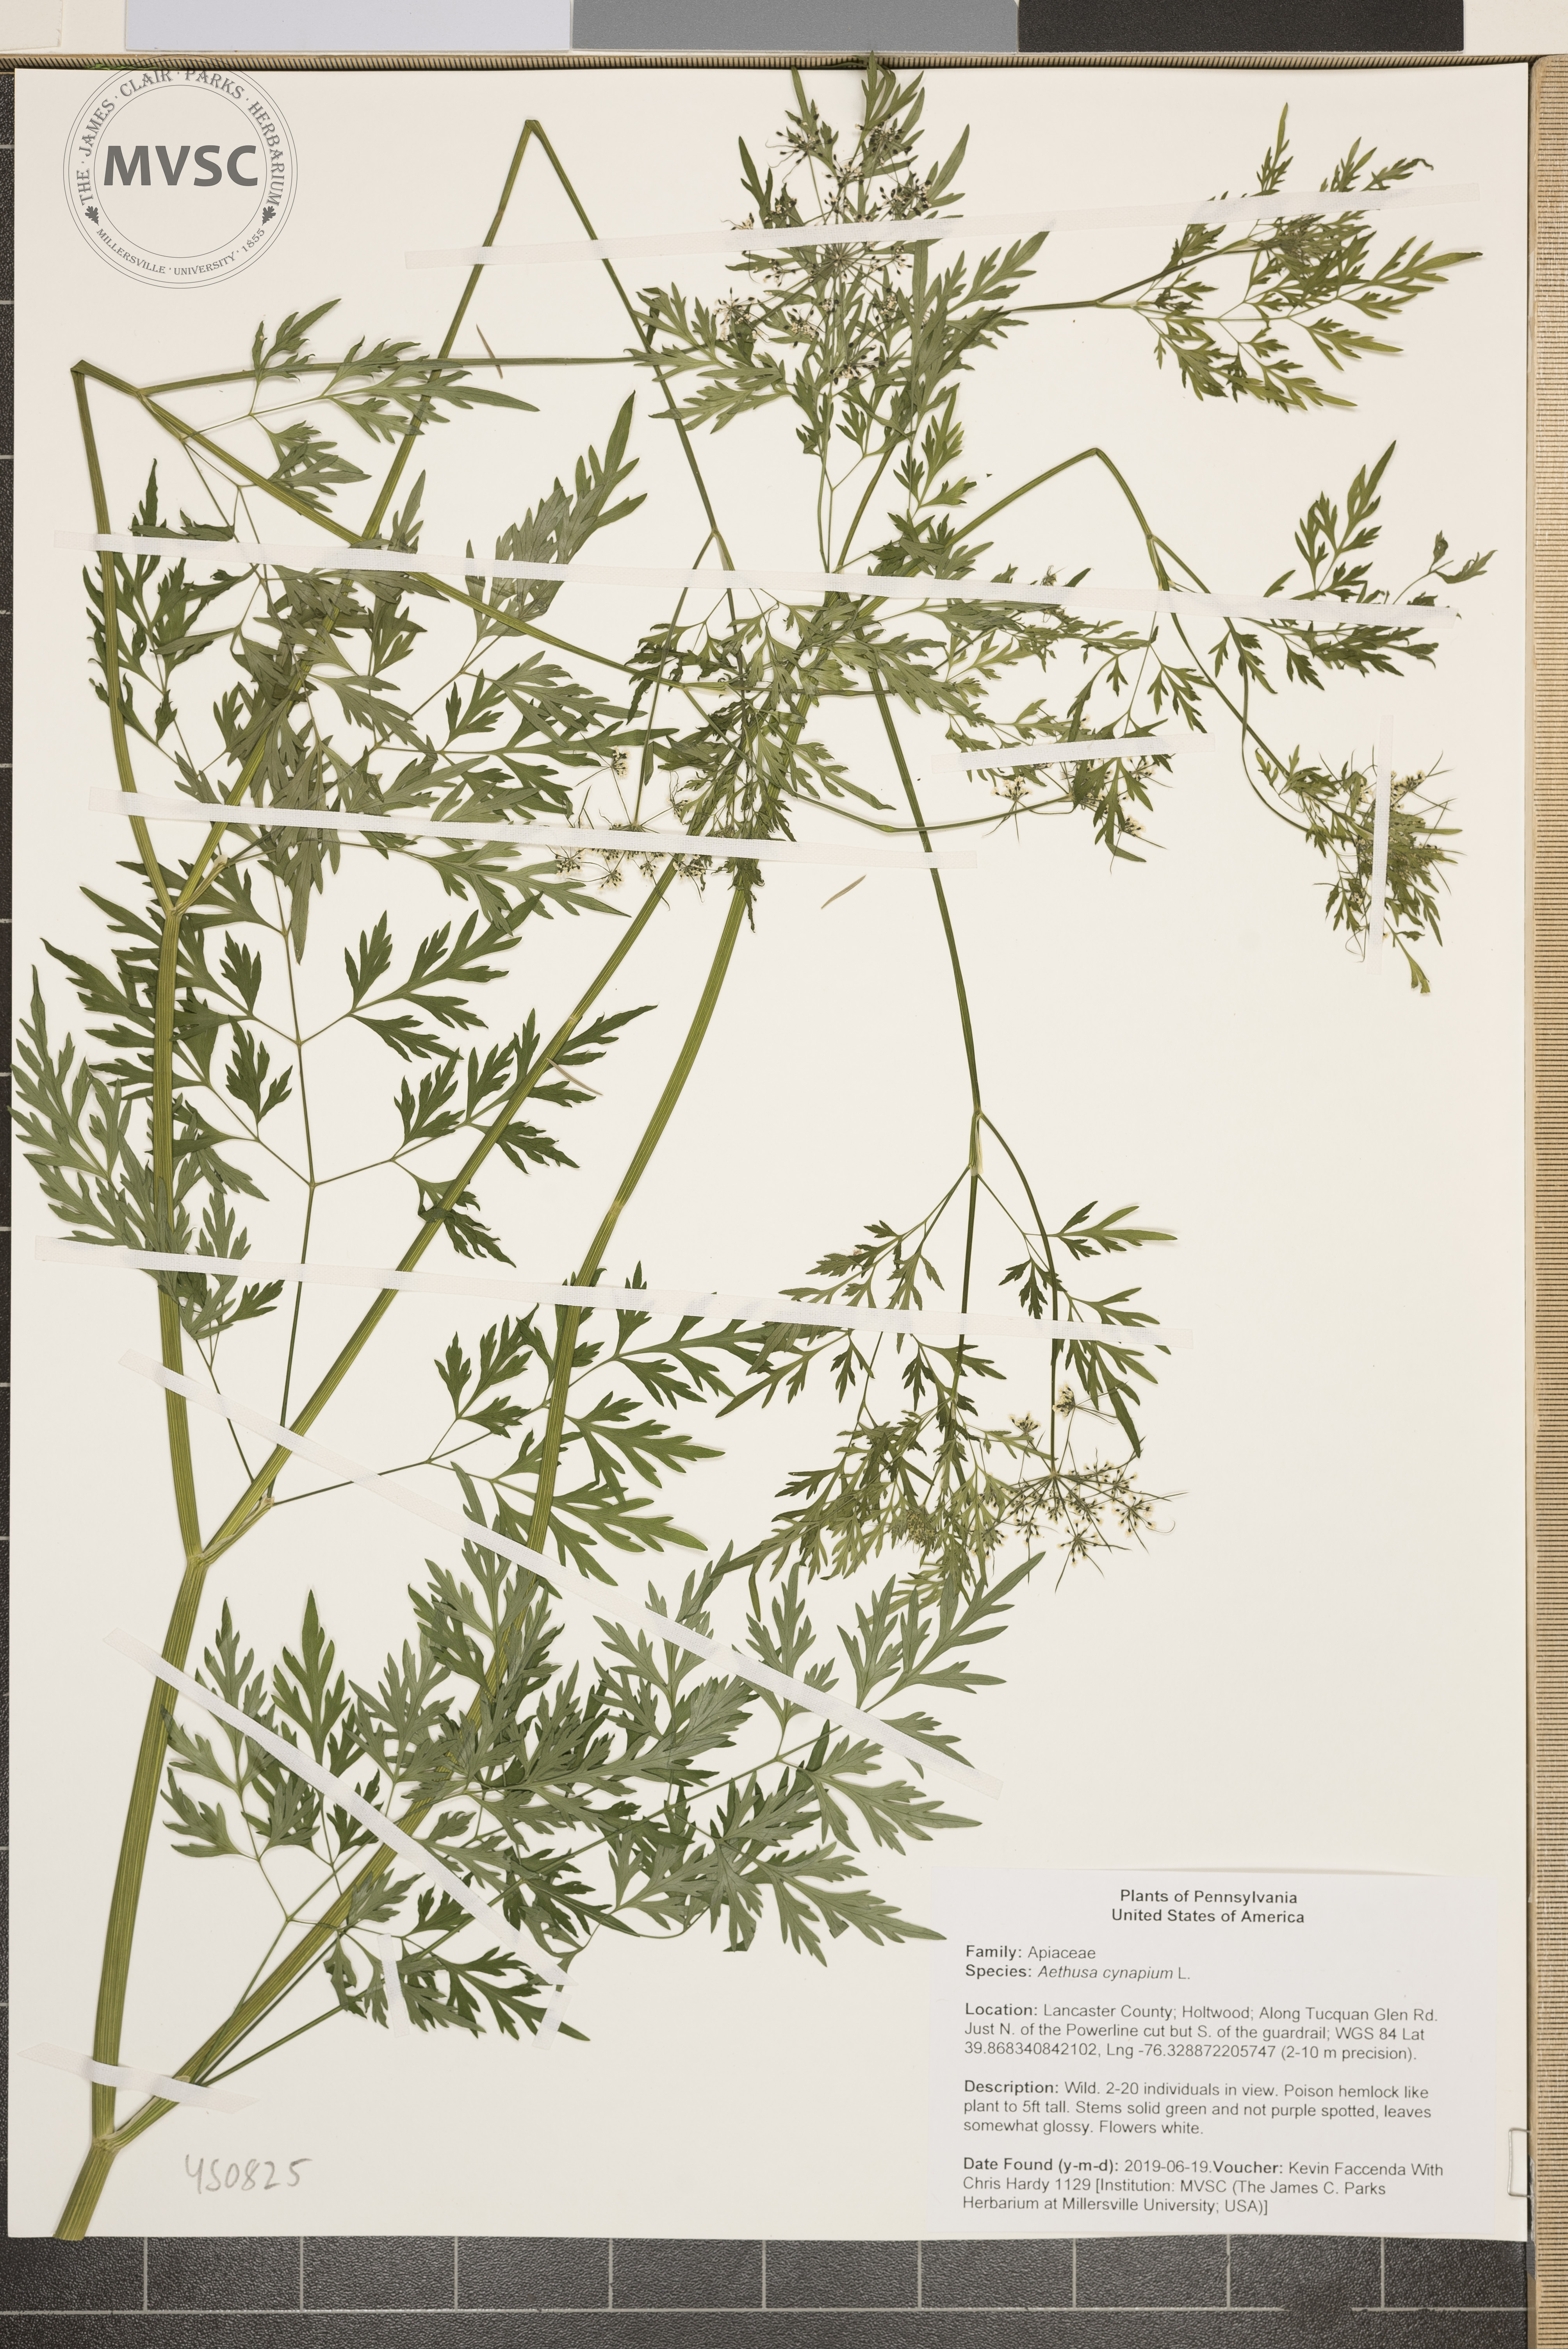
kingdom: Plantae
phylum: Tracheophyta
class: Magnoliopsida
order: Apiales
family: Apiaceae
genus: Aethusa
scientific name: Aethusa cynapium
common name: Fool's parsley
